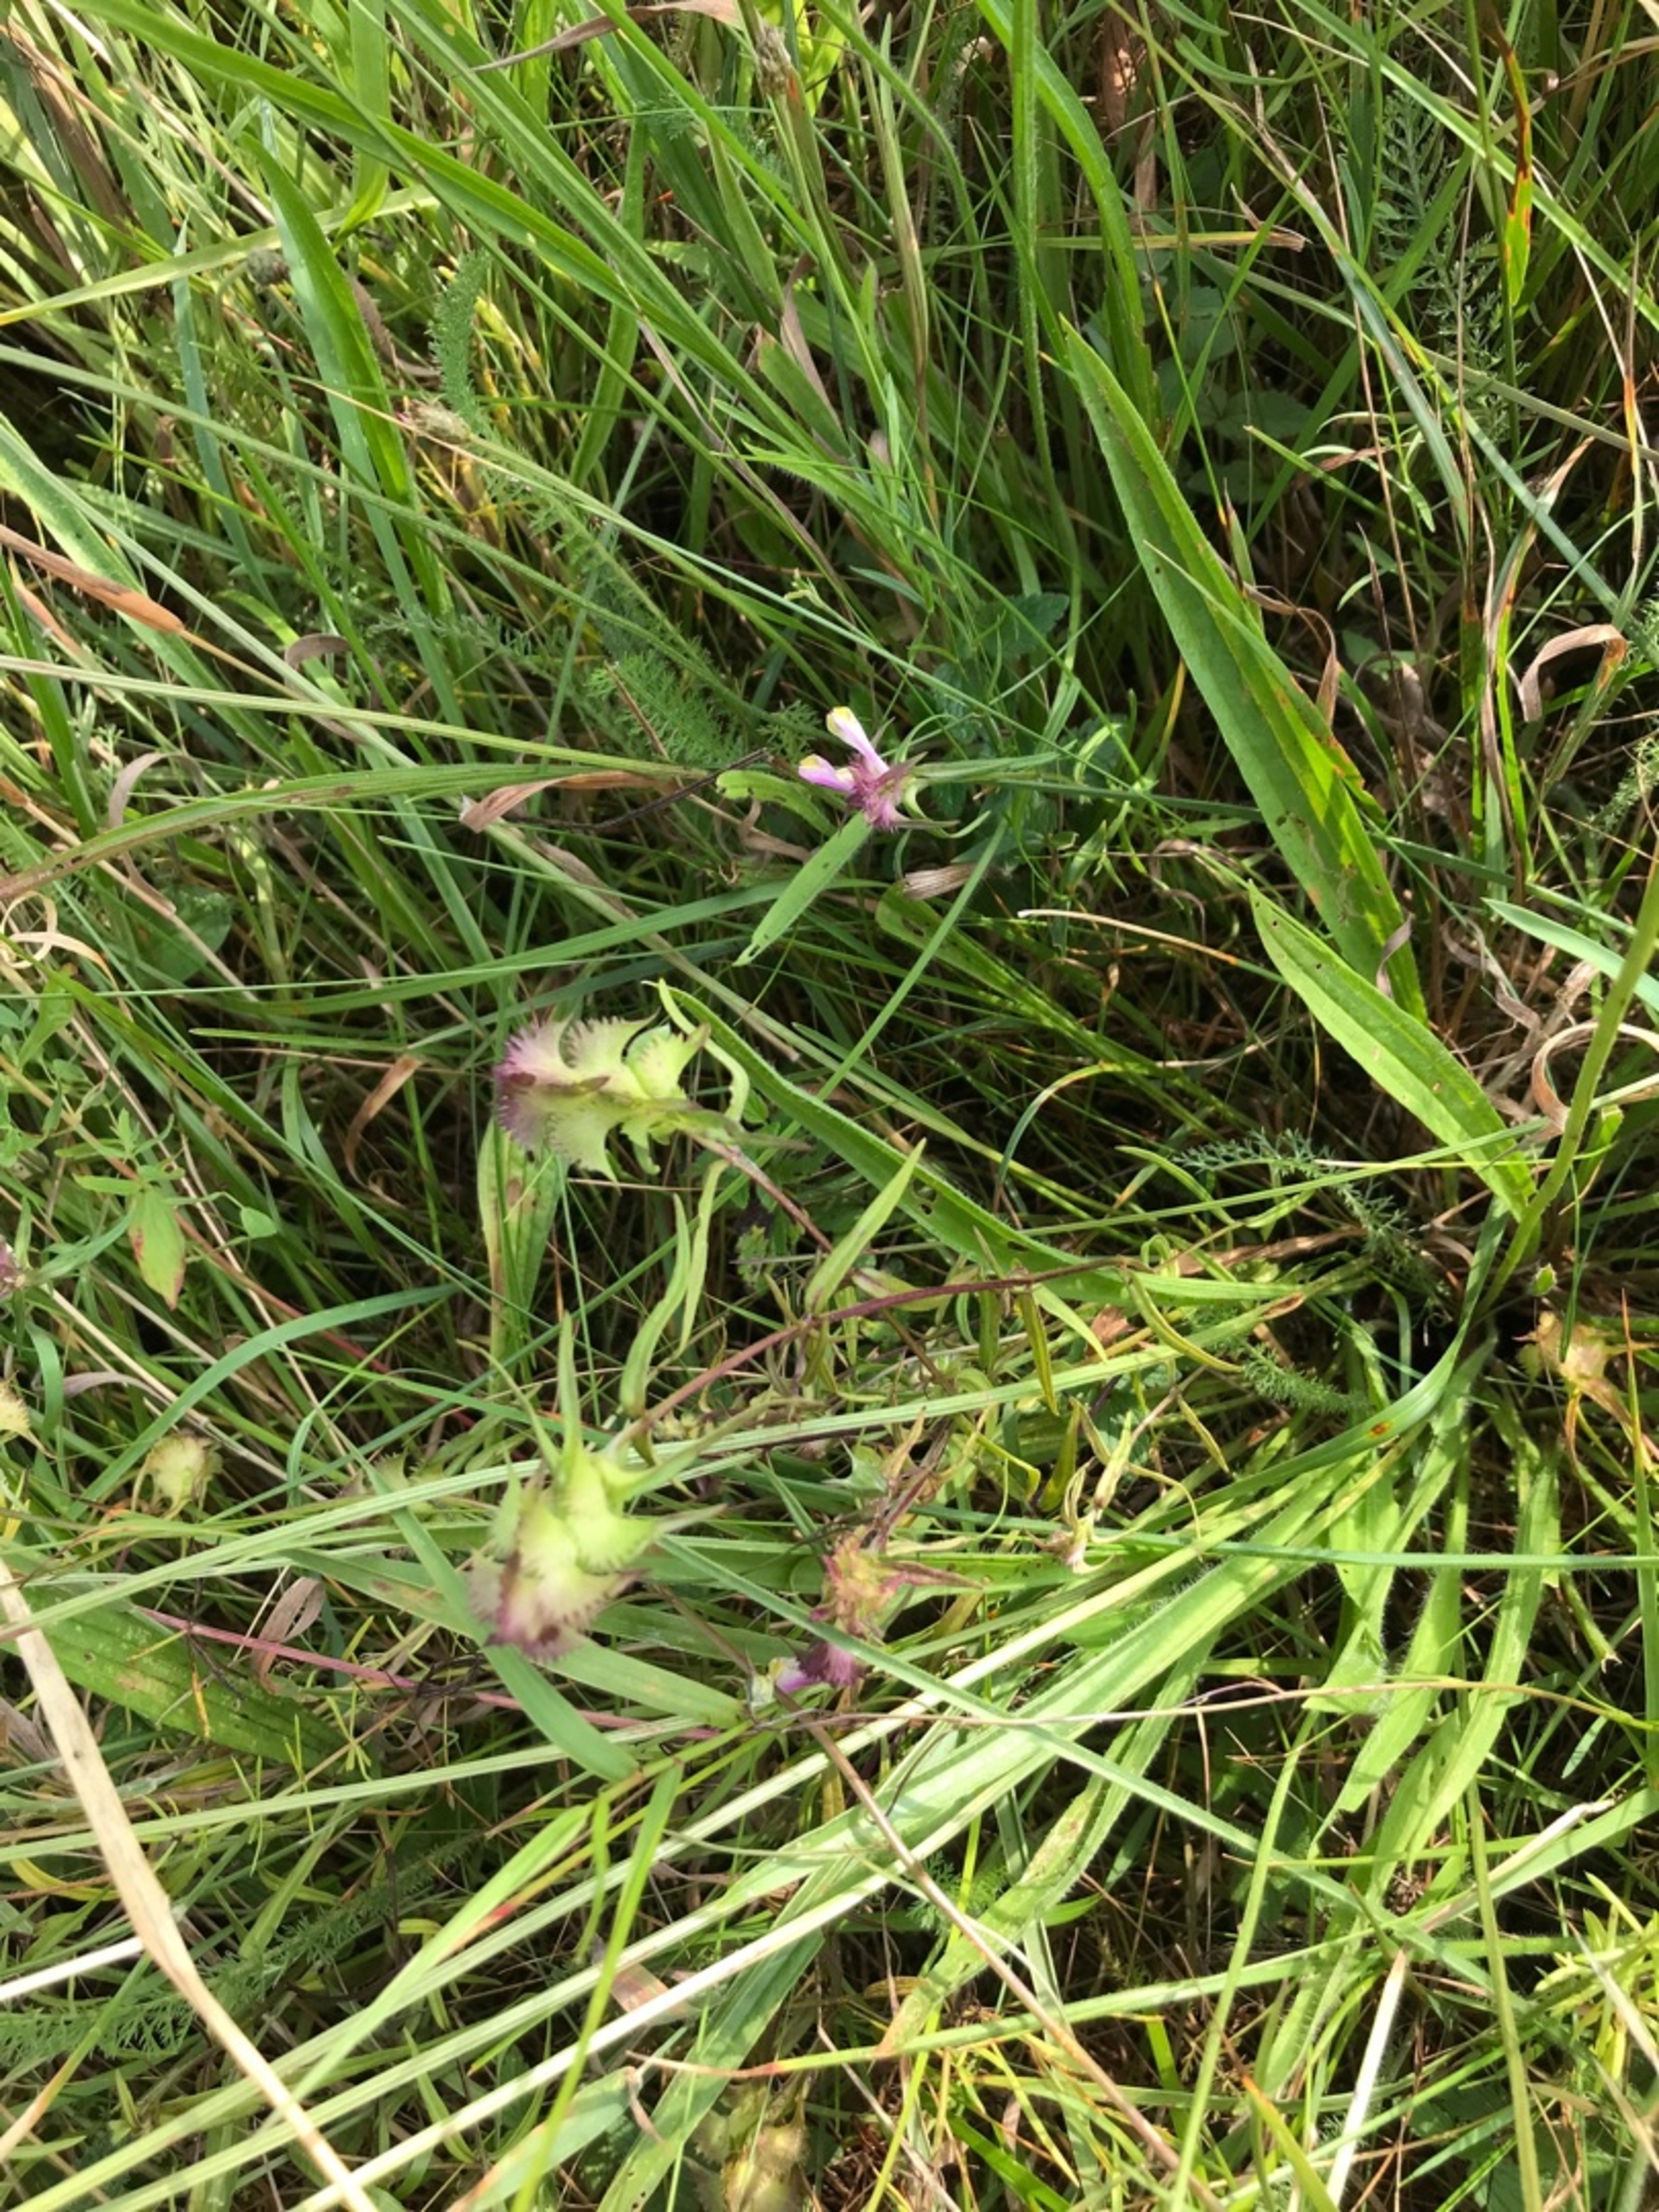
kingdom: Plantae
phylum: Tracheophyta
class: Magnoliopsida
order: Lamiales
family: Orobanchaceae
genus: Melampyrum
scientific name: Melampyrum cristatum
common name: Kantet kohvede
